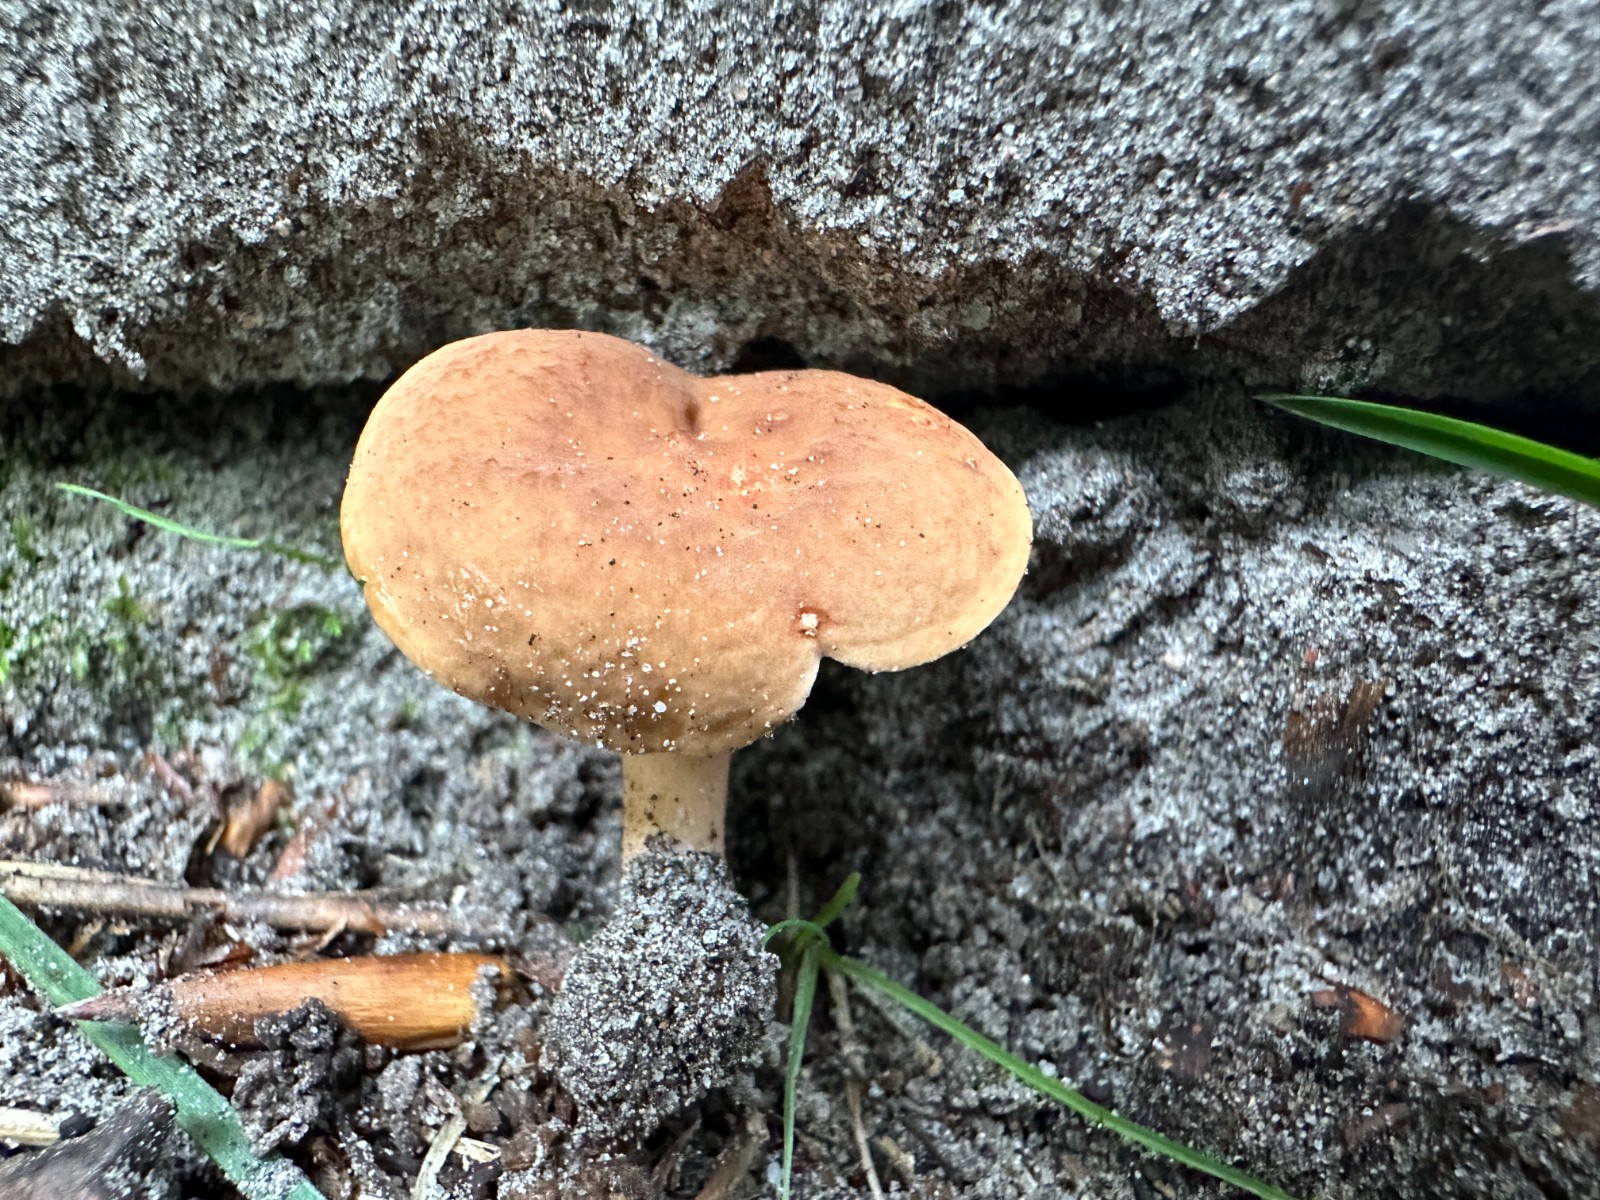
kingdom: Fungi
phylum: Basidiomycota
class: Agaricomycetes
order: Russulales
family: Russulaceae
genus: Lactarius
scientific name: Lactarius subdulcis
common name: sødlig mælkehat
